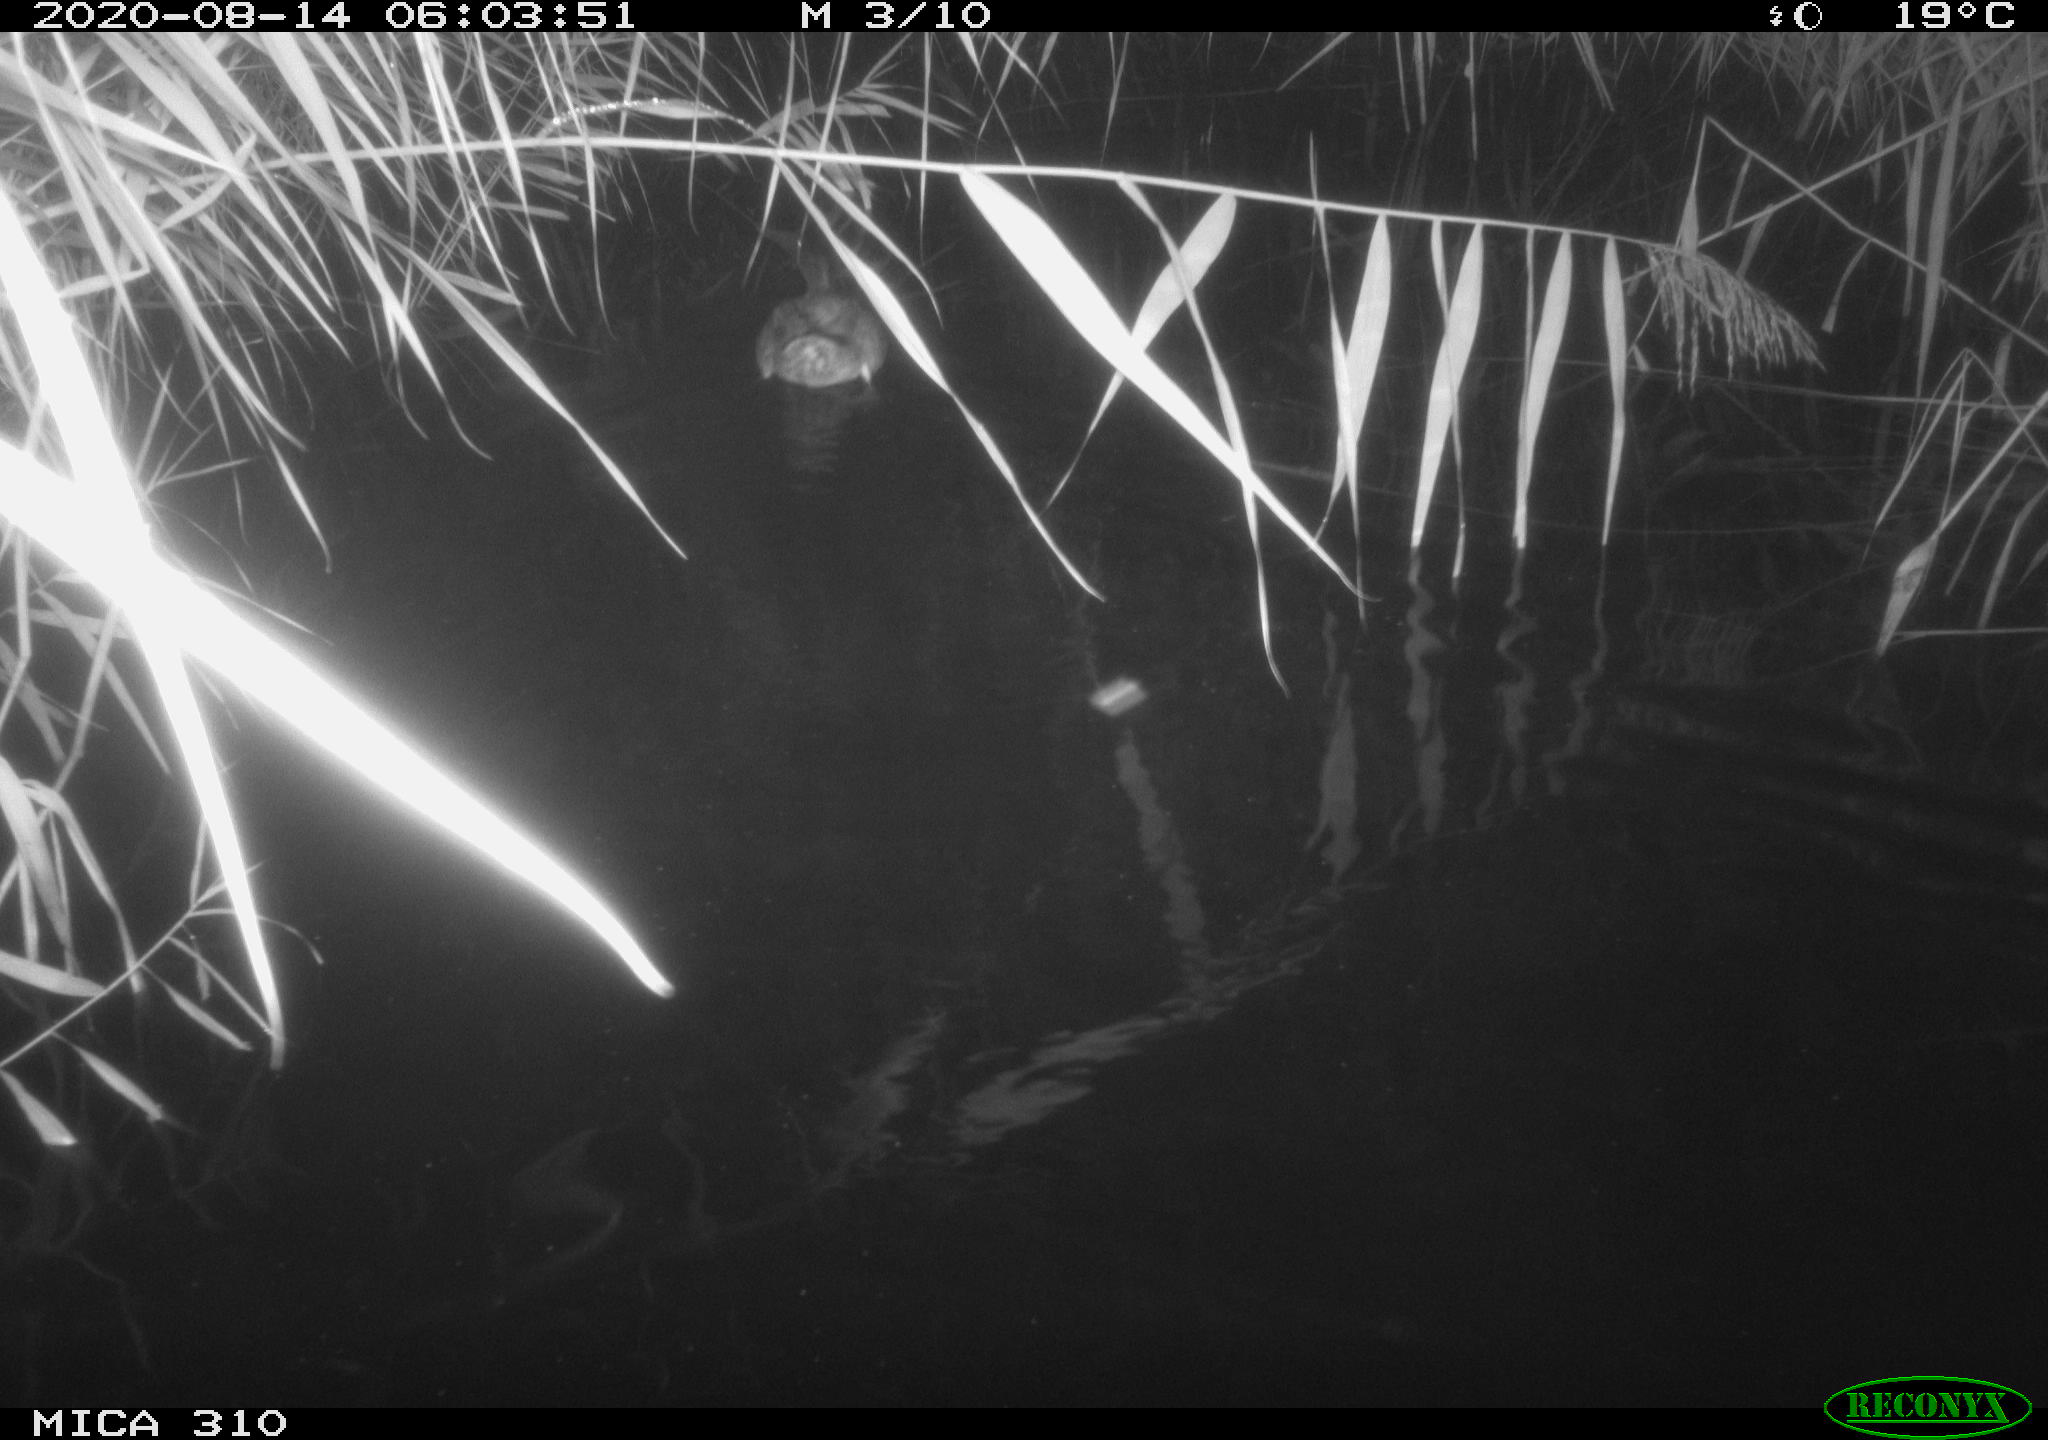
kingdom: Animalia
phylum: Chordata
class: Aves
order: Anseriformes
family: Anatidae
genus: Anas
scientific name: Anas platyrhynchos
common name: Mallard
